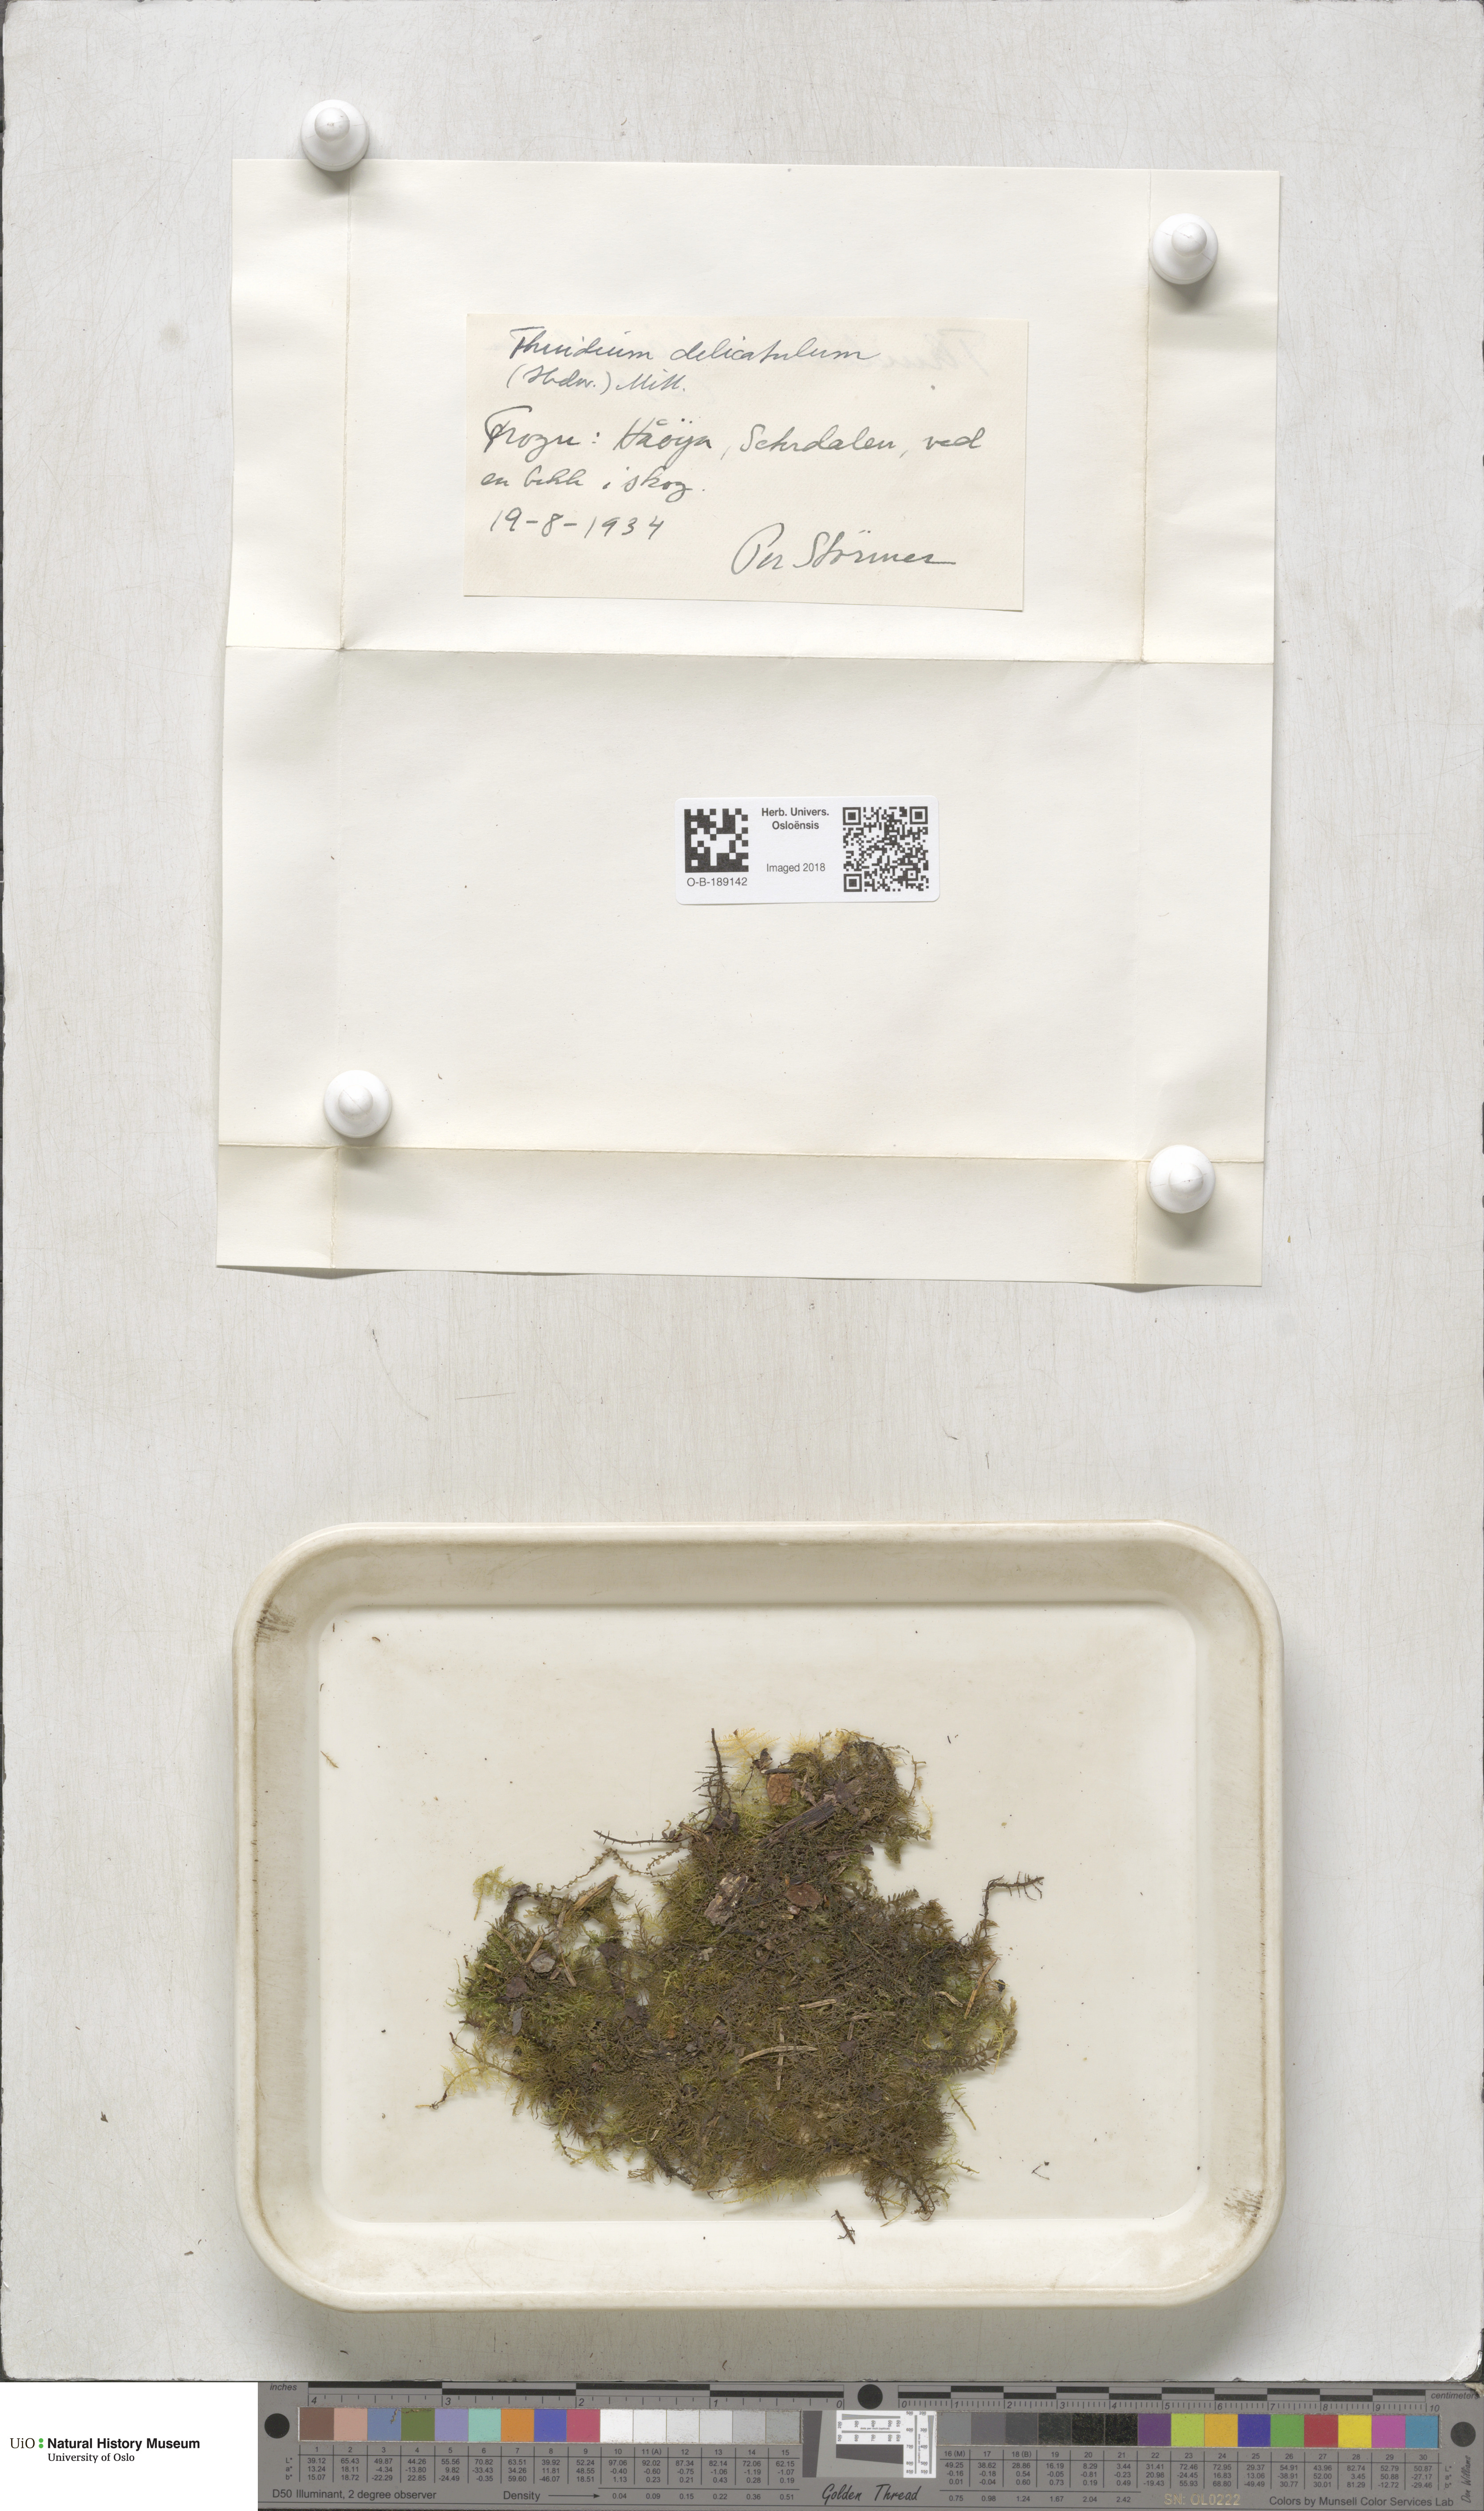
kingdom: Plantae
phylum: Bryophyta
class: Bryopsida
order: Hypnales
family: Thuidiaceae
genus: Thuidium
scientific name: Thuidium delicatulum
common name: Delicate fern moss
